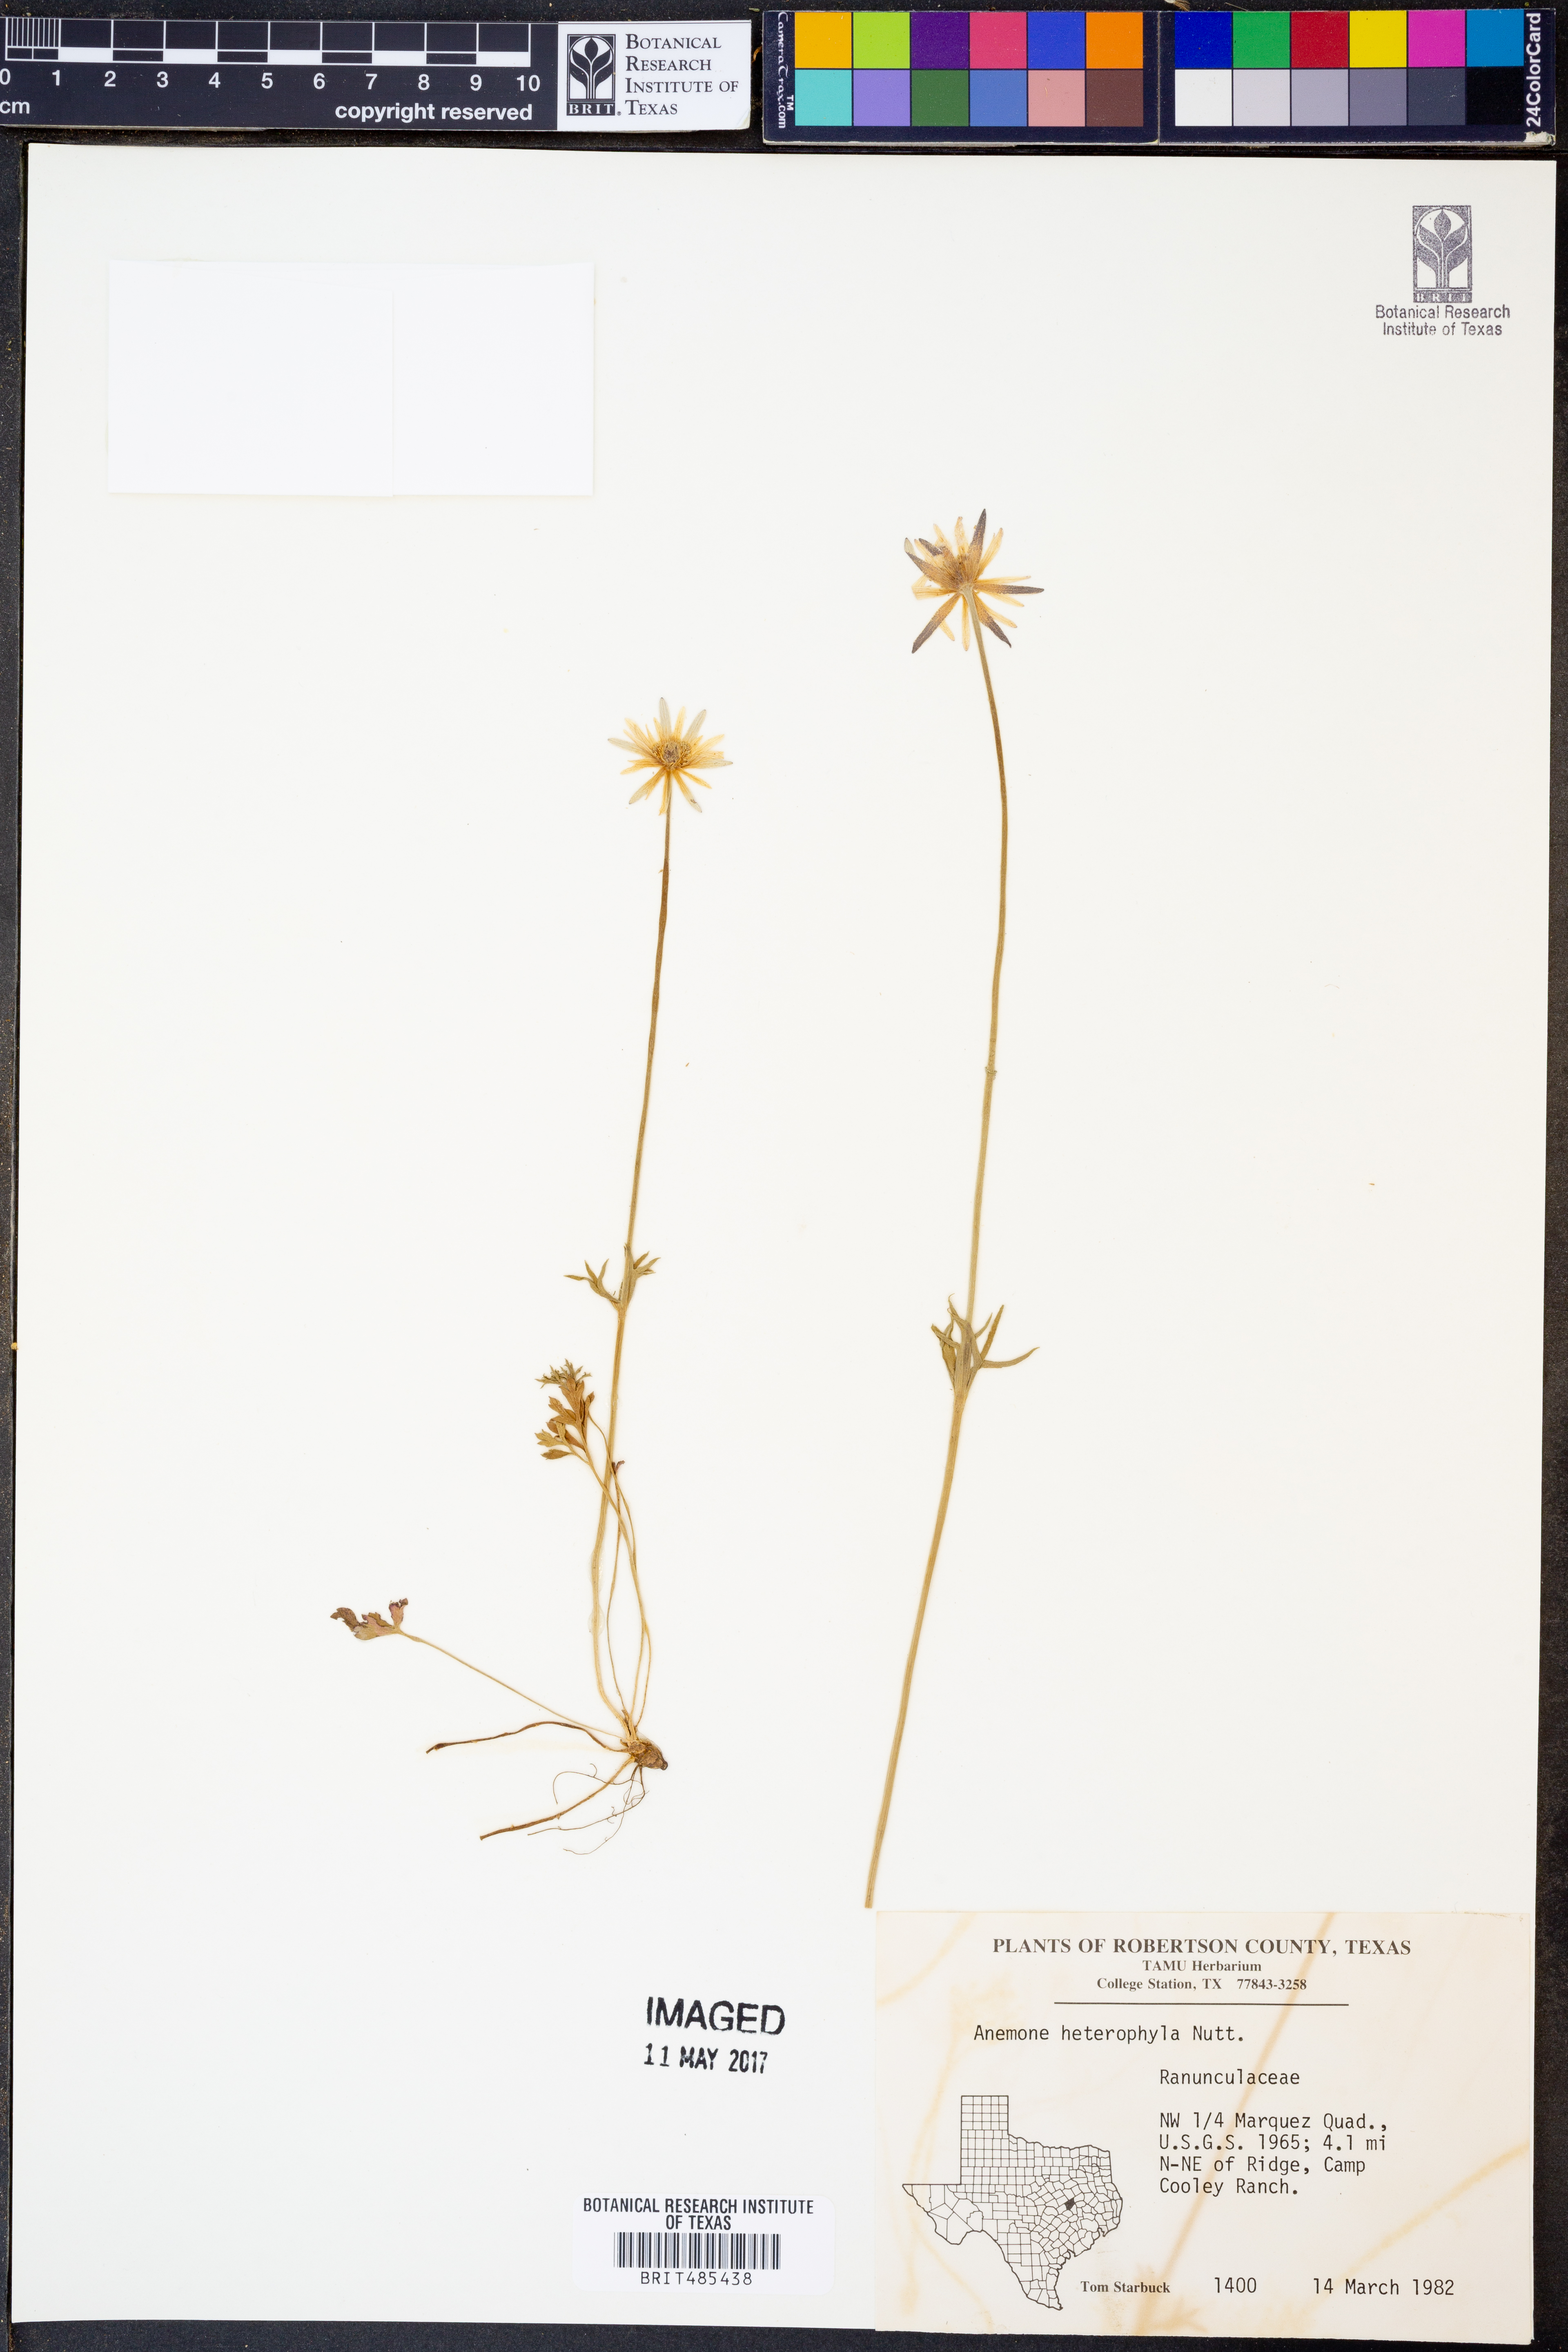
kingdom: Plantae
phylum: Tracheophyta
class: Magnoliopsida
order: Ranunculales
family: Ranunculaceae
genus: Anemone
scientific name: Anemone heterophylla
